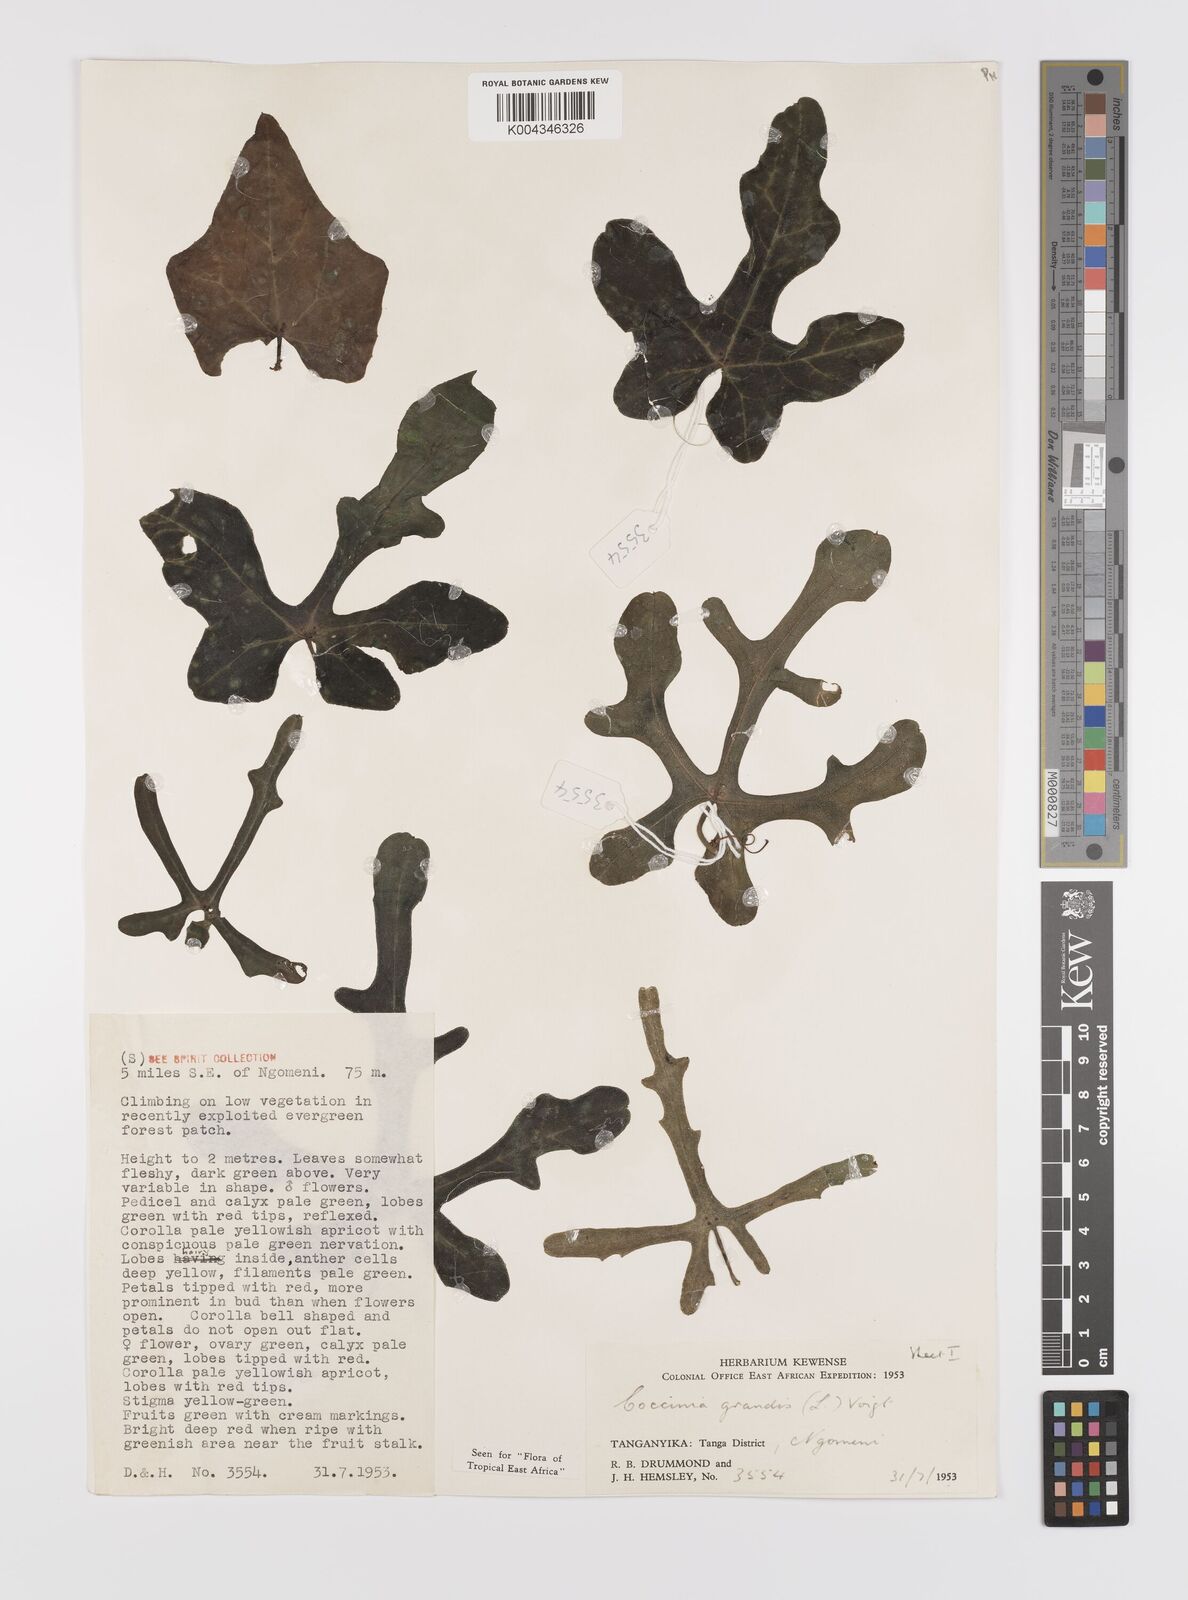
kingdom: Plantae
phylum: Tracheophyta
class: Magnoliopsida
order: Cucurbitales
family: Cucurbitaceae
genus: Coccinia
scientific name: Coccinia grandis
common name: Ivy gourd
